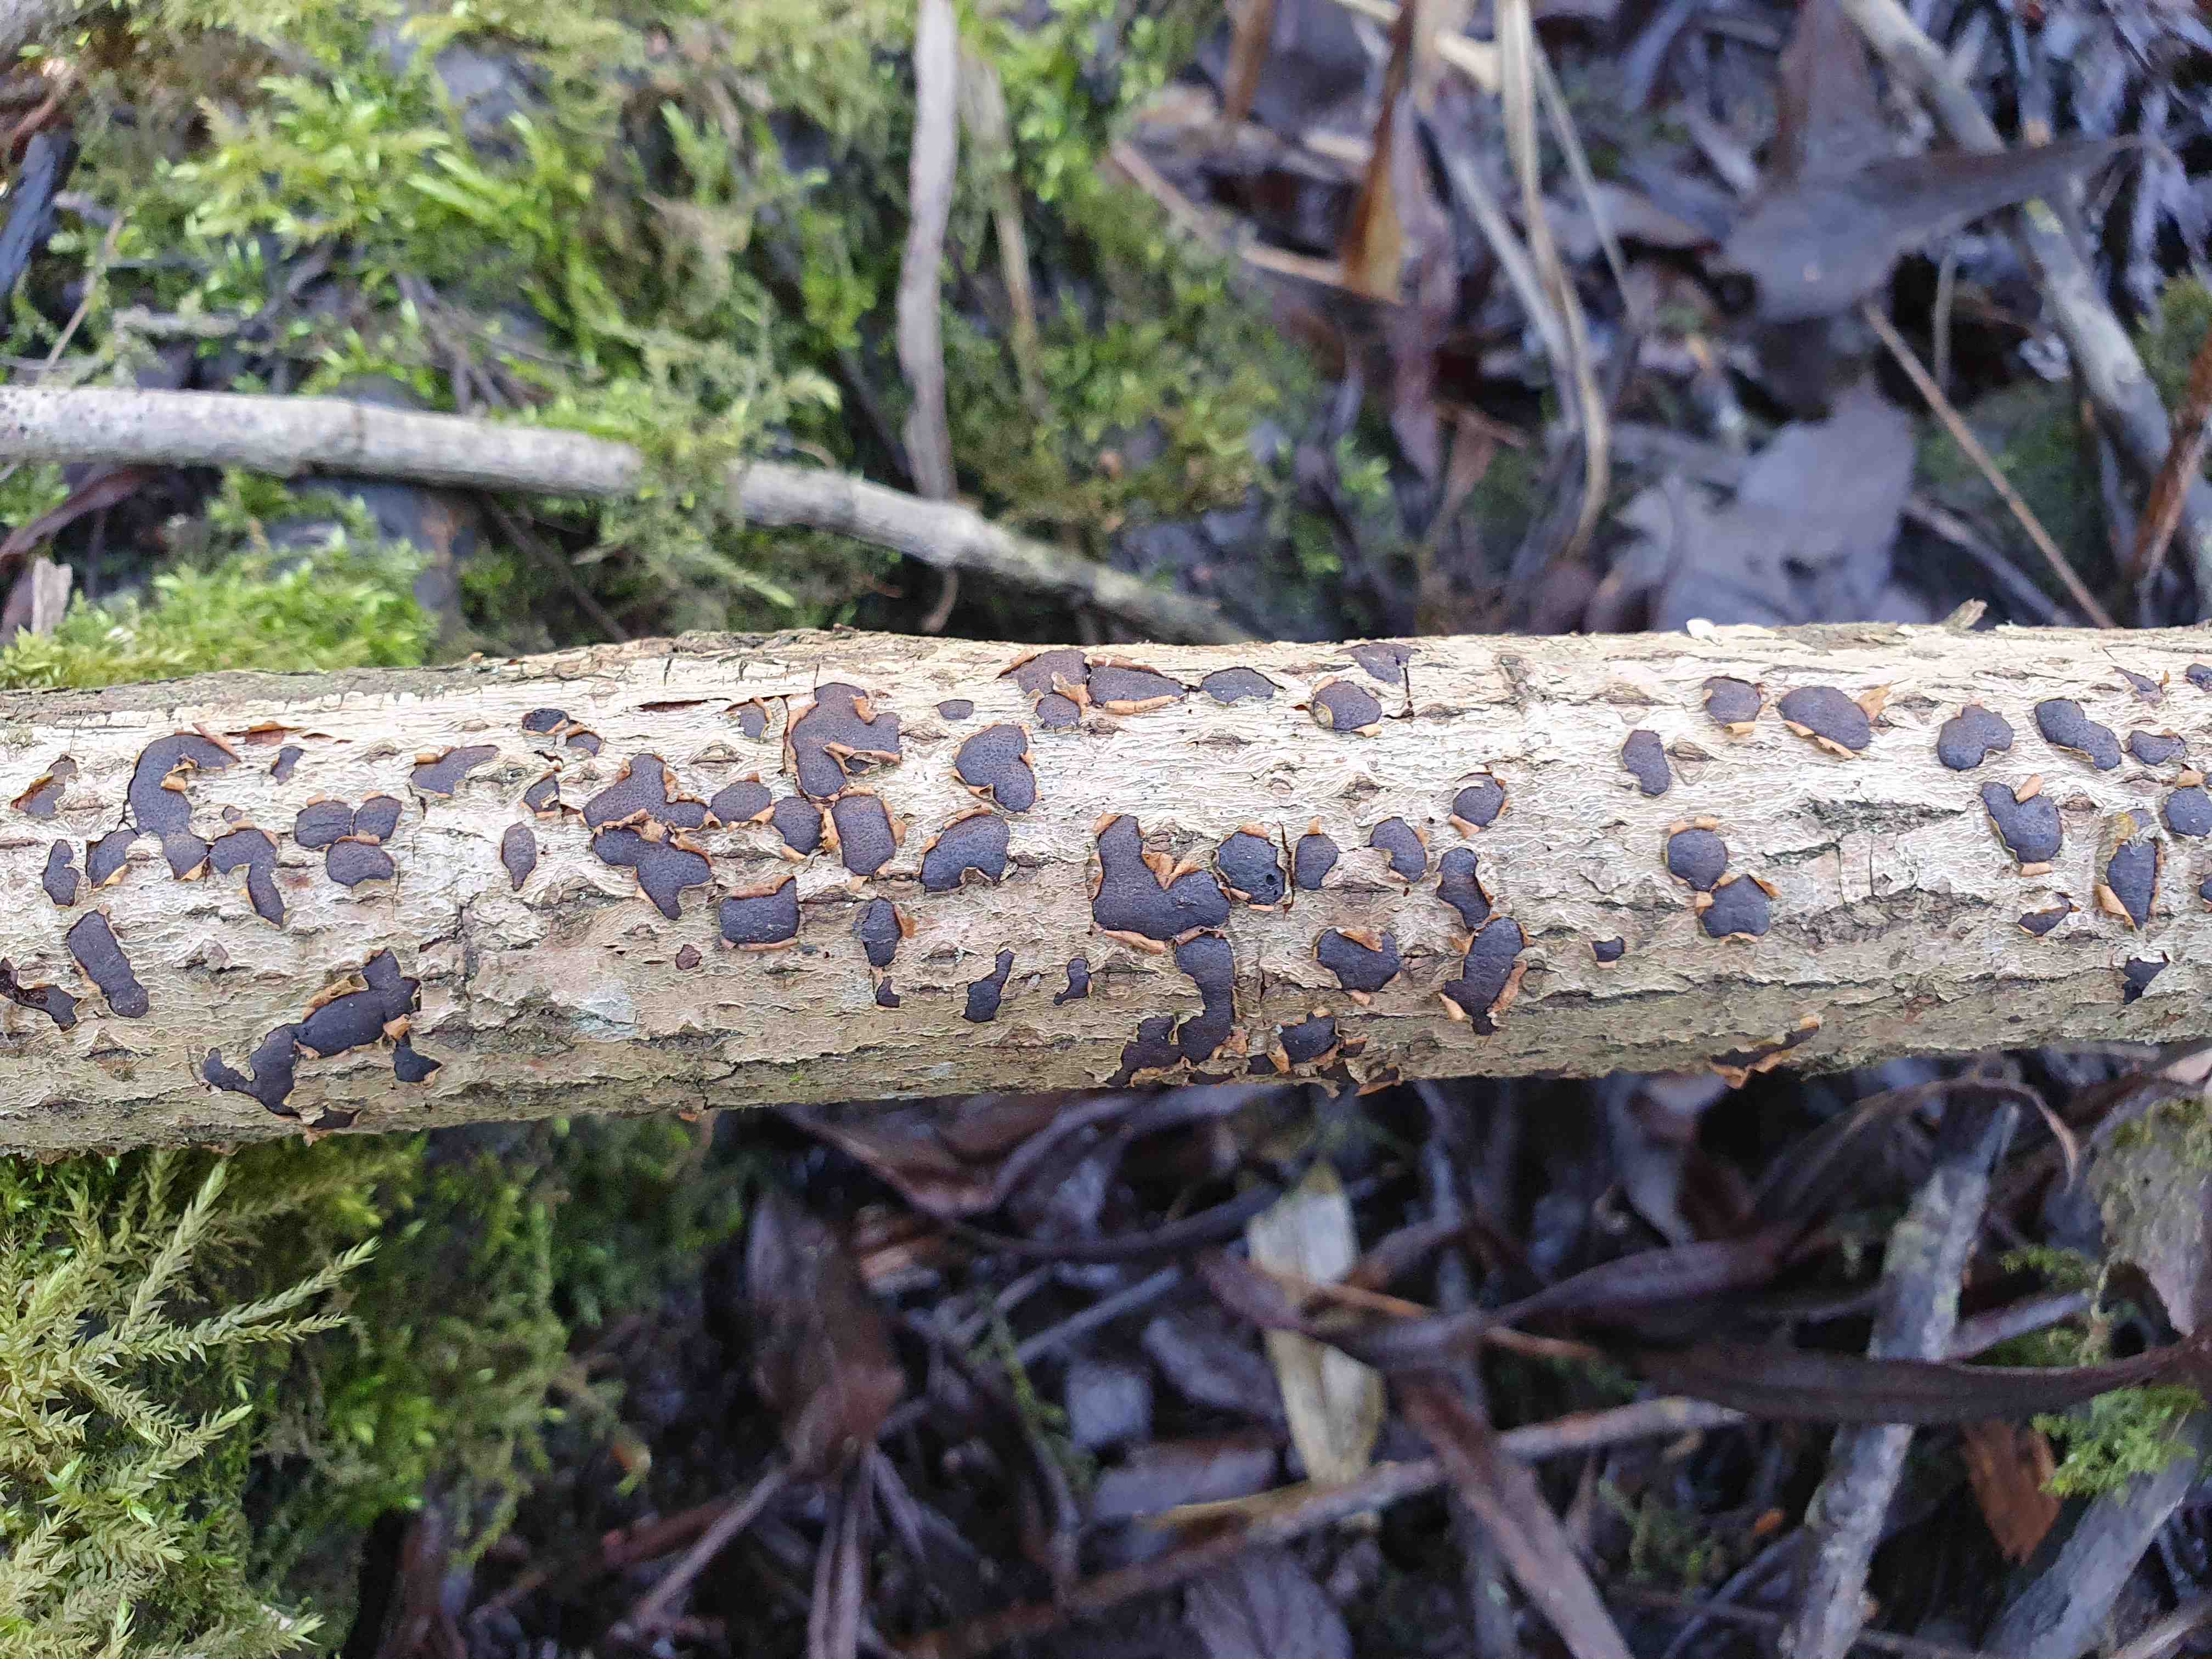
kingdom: Fungi
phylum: Ascomycota
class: Sordariomycetes
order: Xylariales
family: Diatrypaceae
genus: Diatrype
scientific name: Diatrype bullata
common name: pile-kulskorpe
